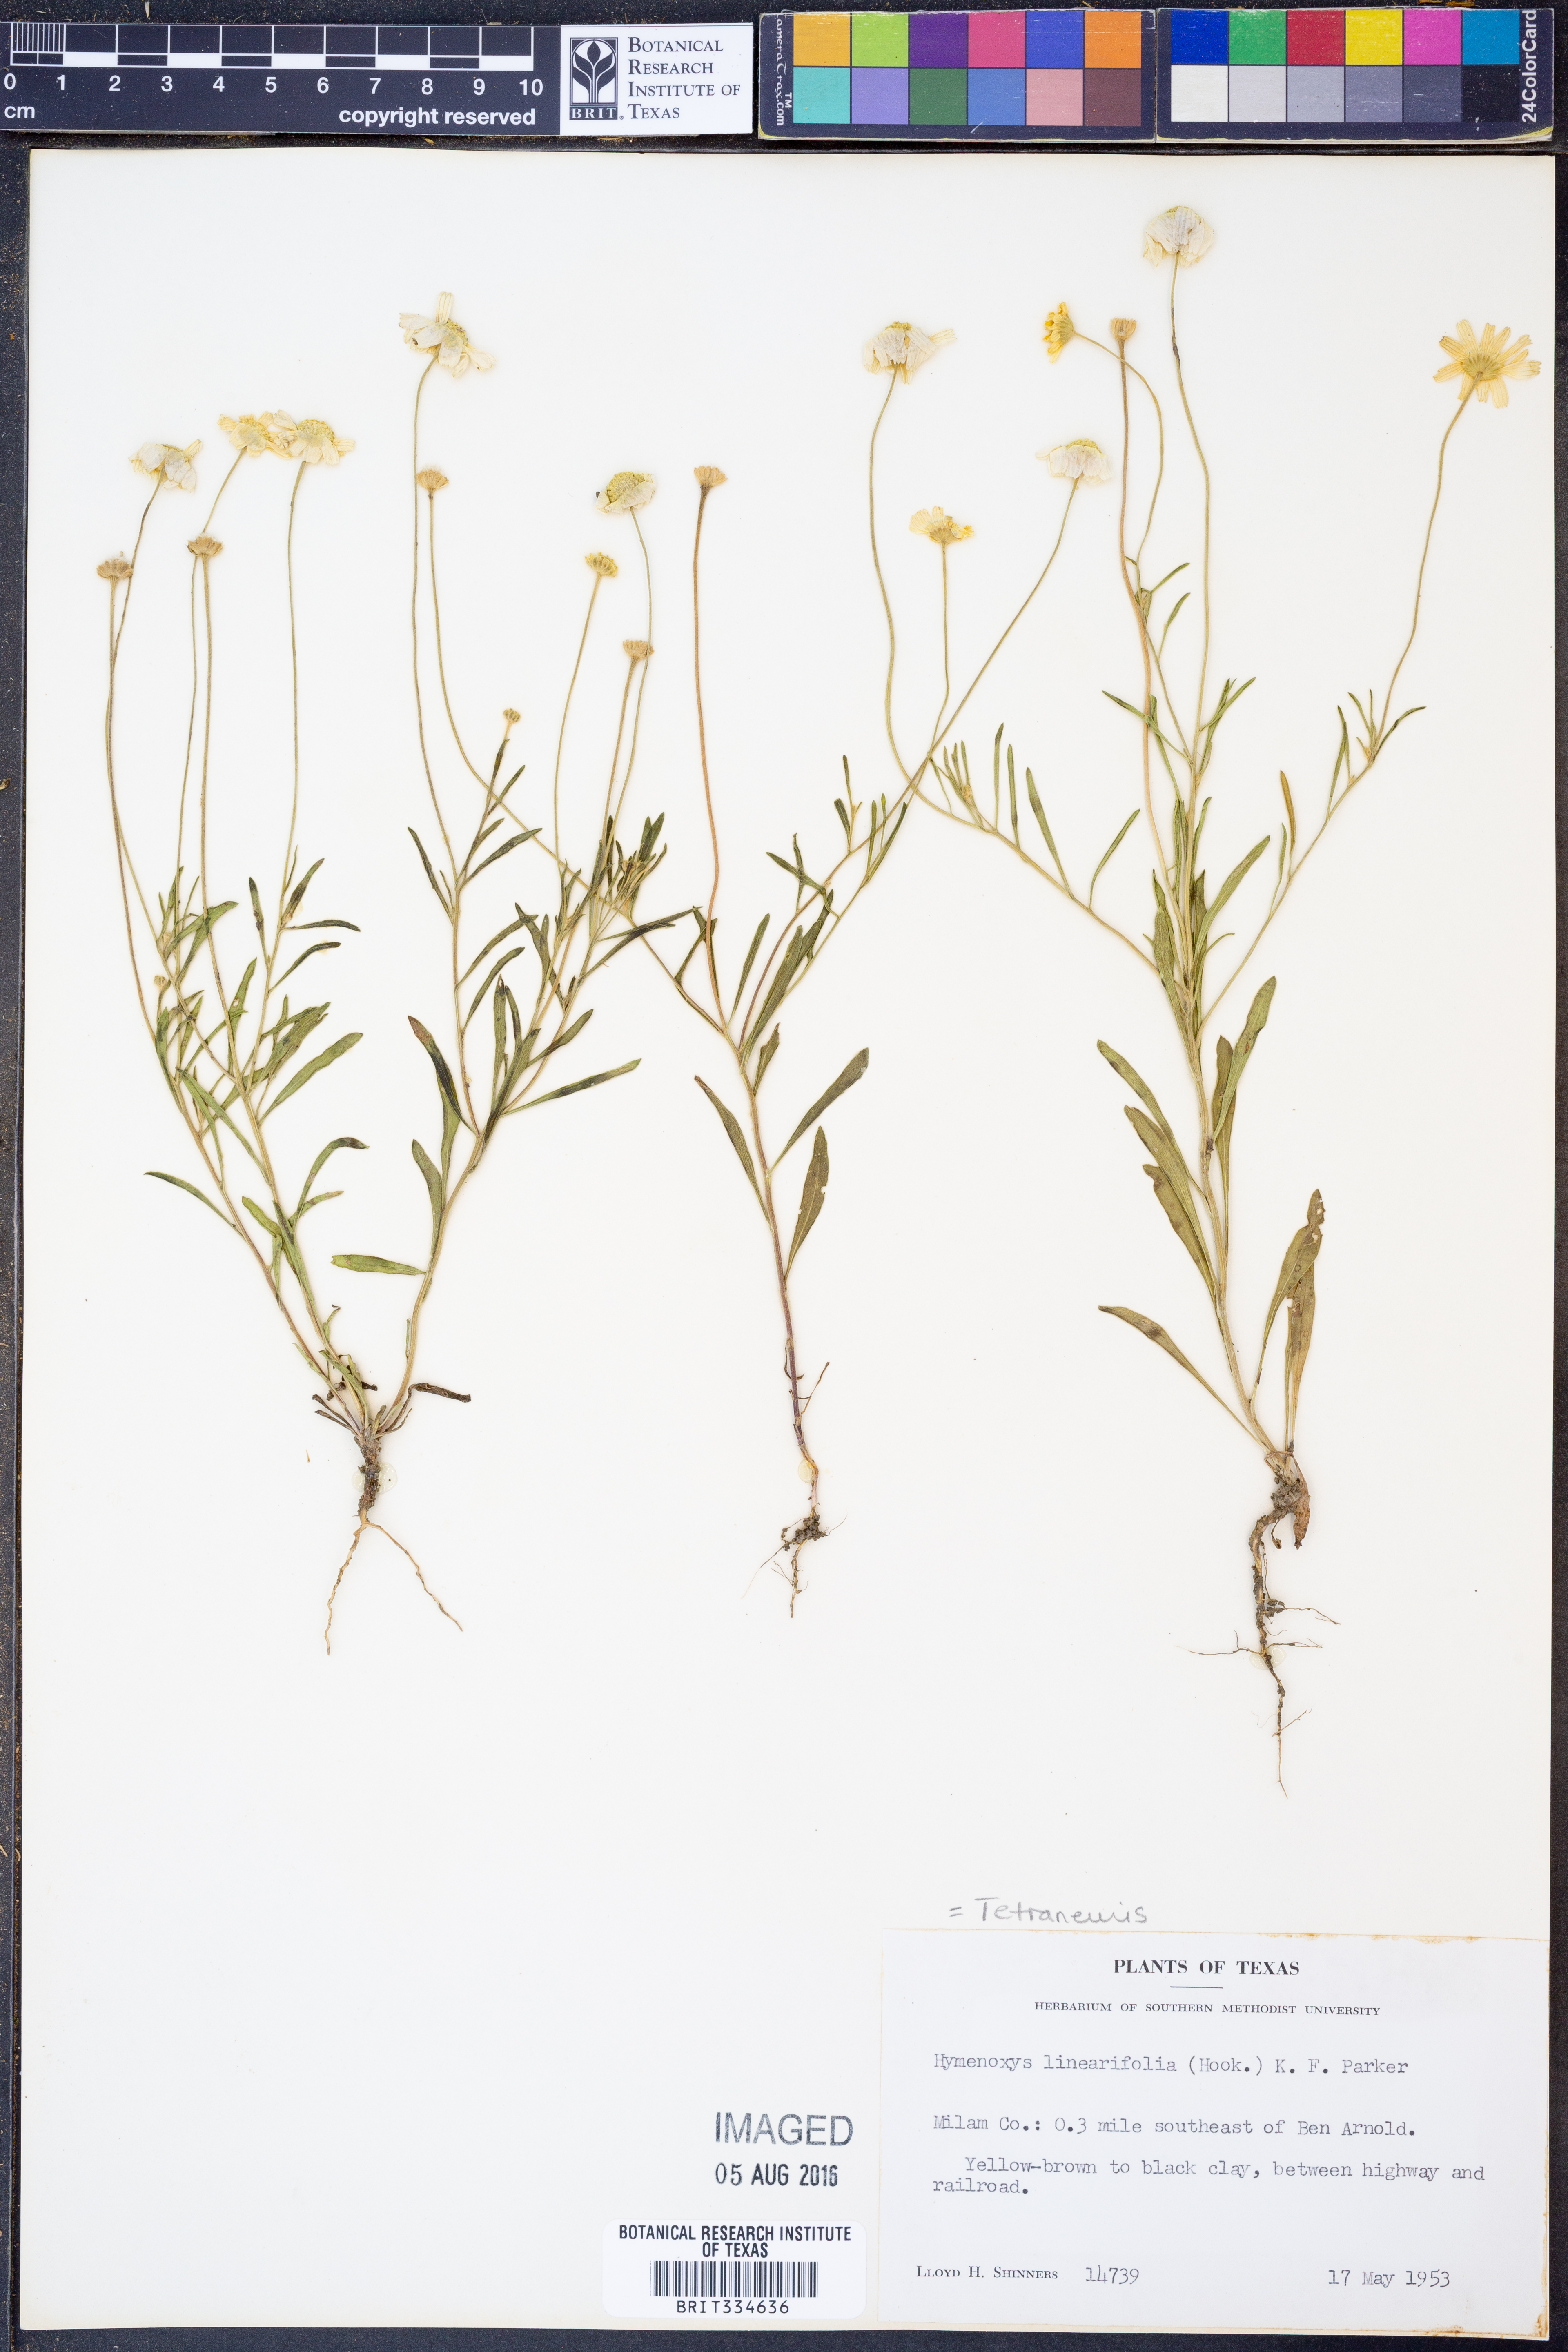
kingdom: Plantae
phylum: Tracheophyta
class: Magnoliopsida
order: Asterales
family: Asteraceae
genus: Tetraneuris
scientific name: Tetraneuris linearifolia
